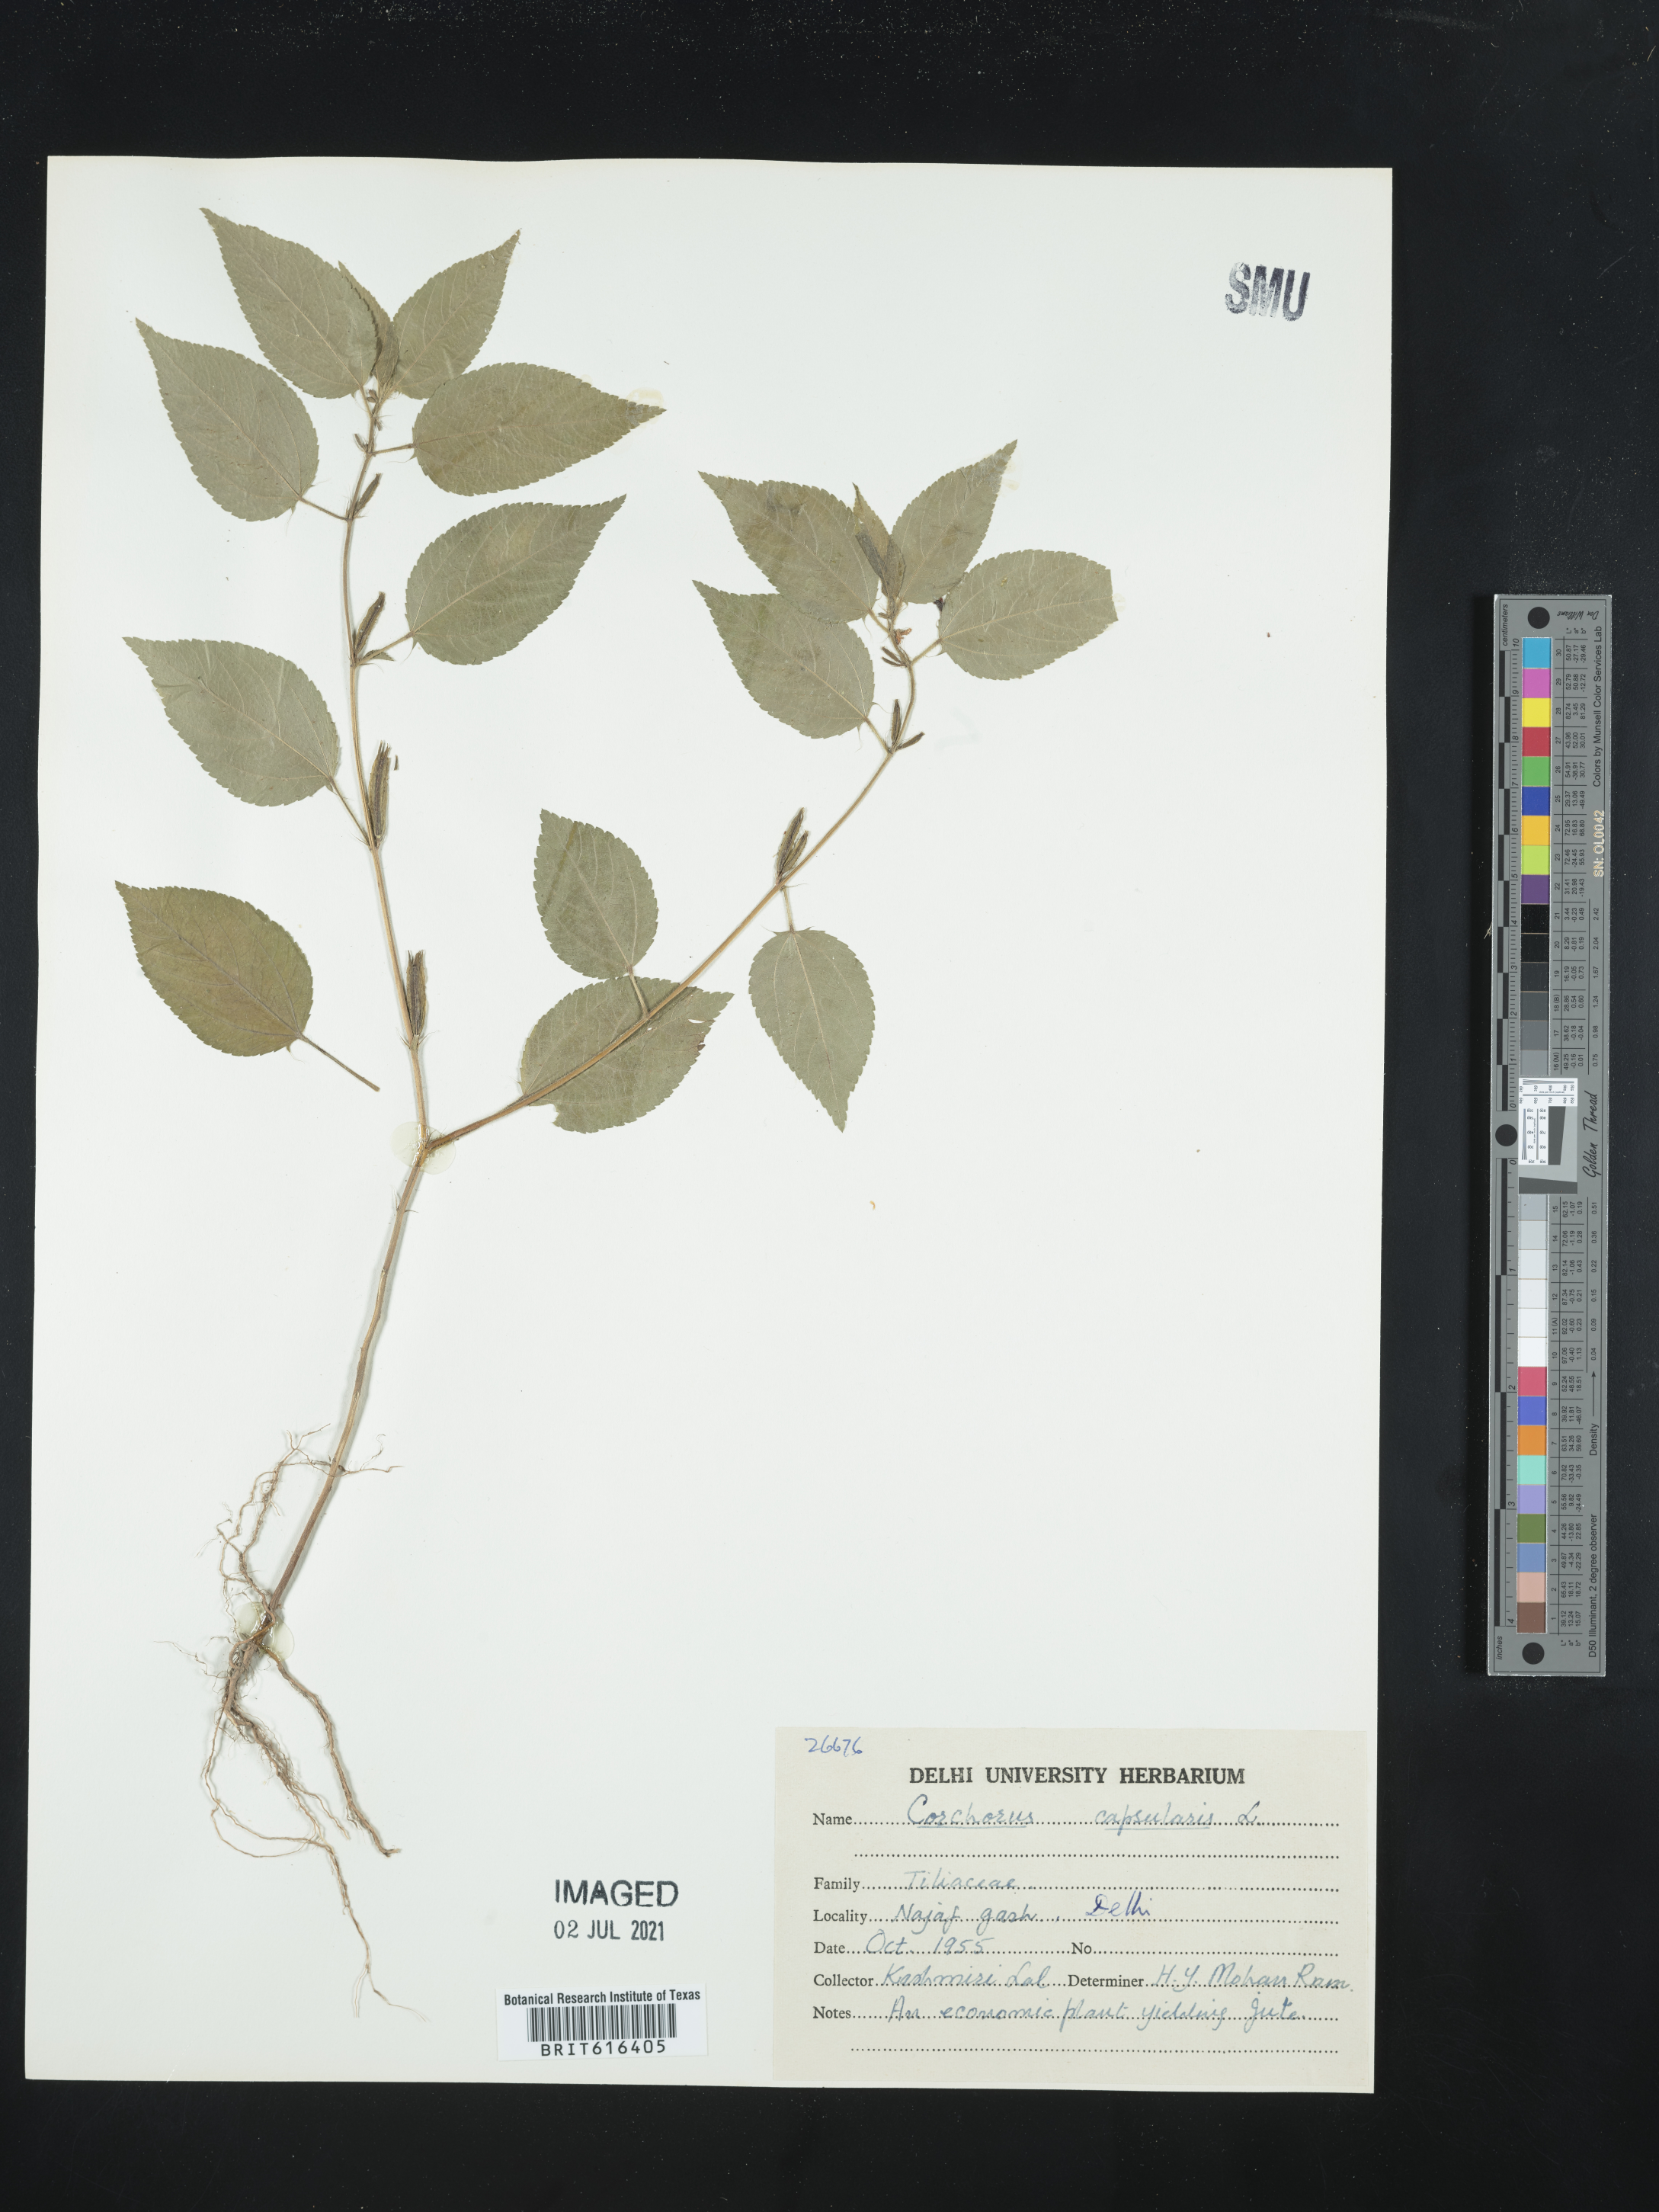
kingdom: Plantae
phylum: Tracheophyta
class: Magnoliopsida
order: Malvales
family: Malvaceae
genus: Corchorus
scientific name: Corchorus capsularis
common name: Jute
